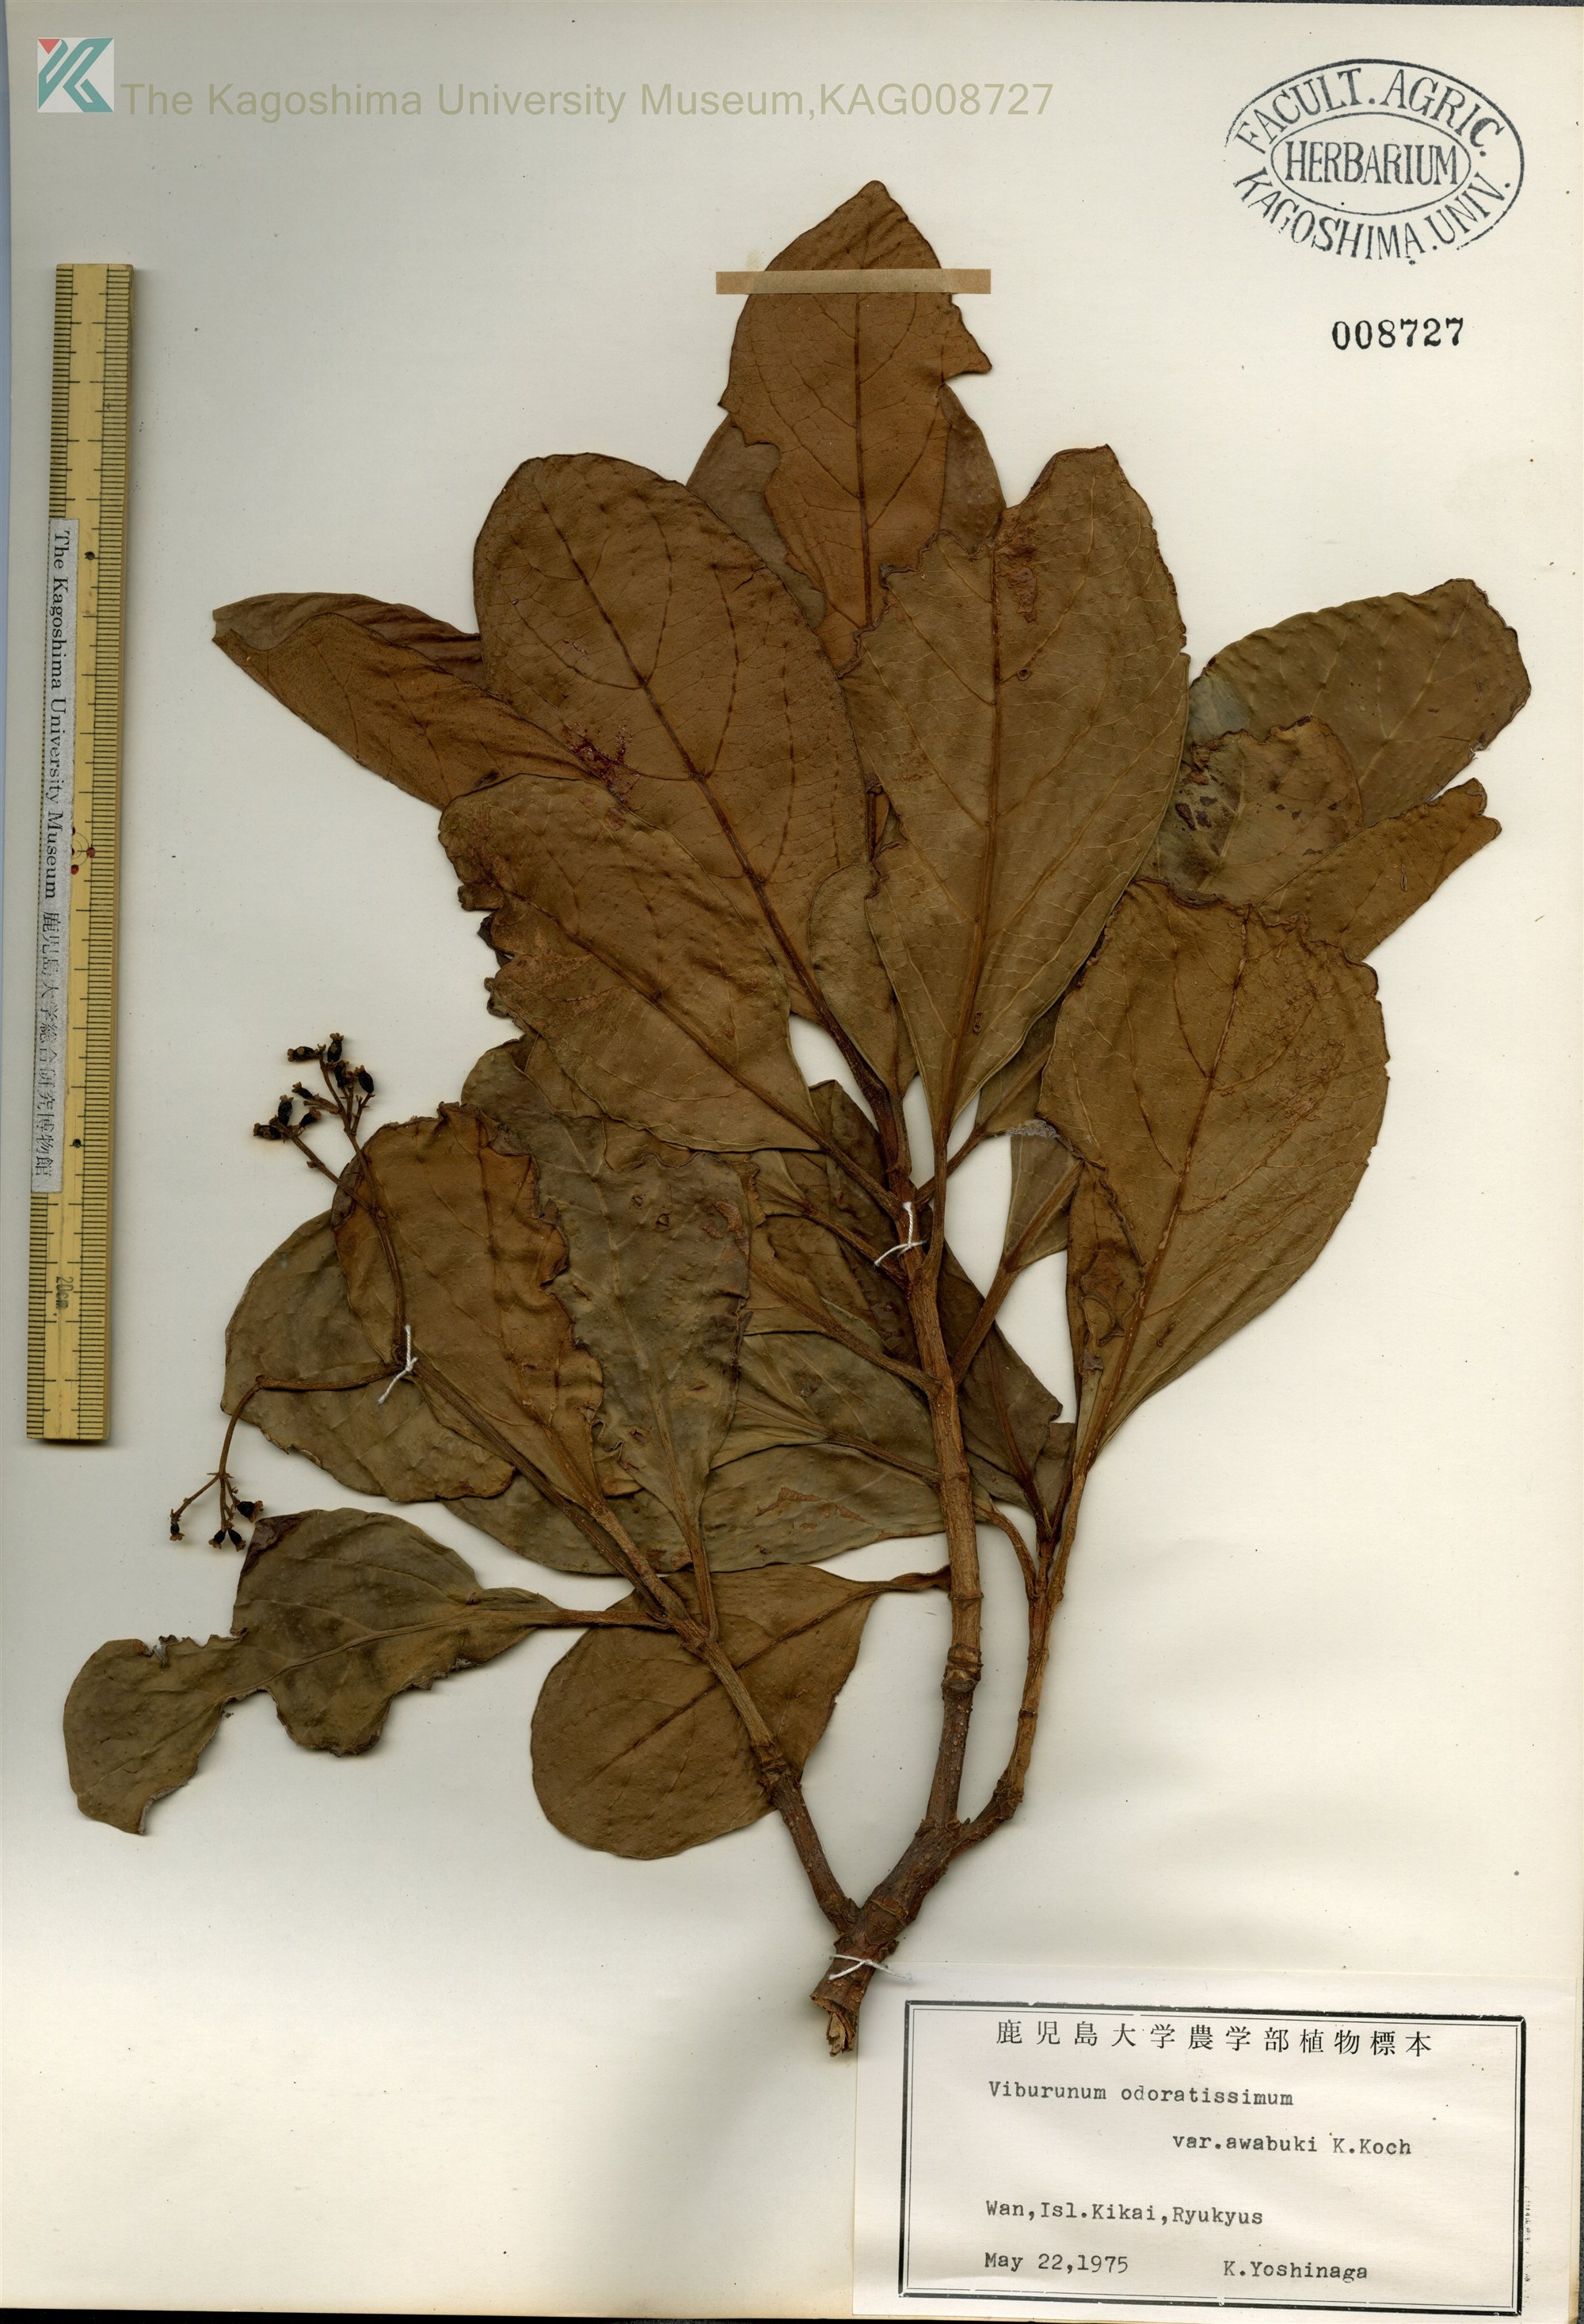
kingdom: Plantae
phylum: Tracheophyta
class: Magnoliopsida
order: Dipsacales
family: Viburnaceae
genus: Viburnum
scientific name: Viburnum odoratissimum
